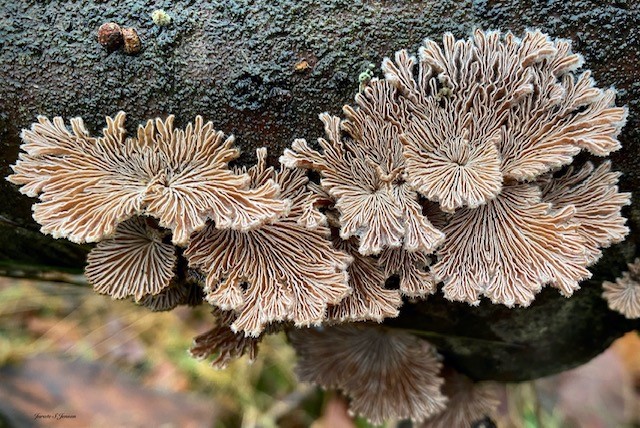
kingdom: Fungi
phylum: Basidiomycota
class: Agaricomycetes
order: Agaricales
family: Schizophyllaceae
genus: Schizophyllum
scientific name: Schizophyllum commune
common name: kløvblad
